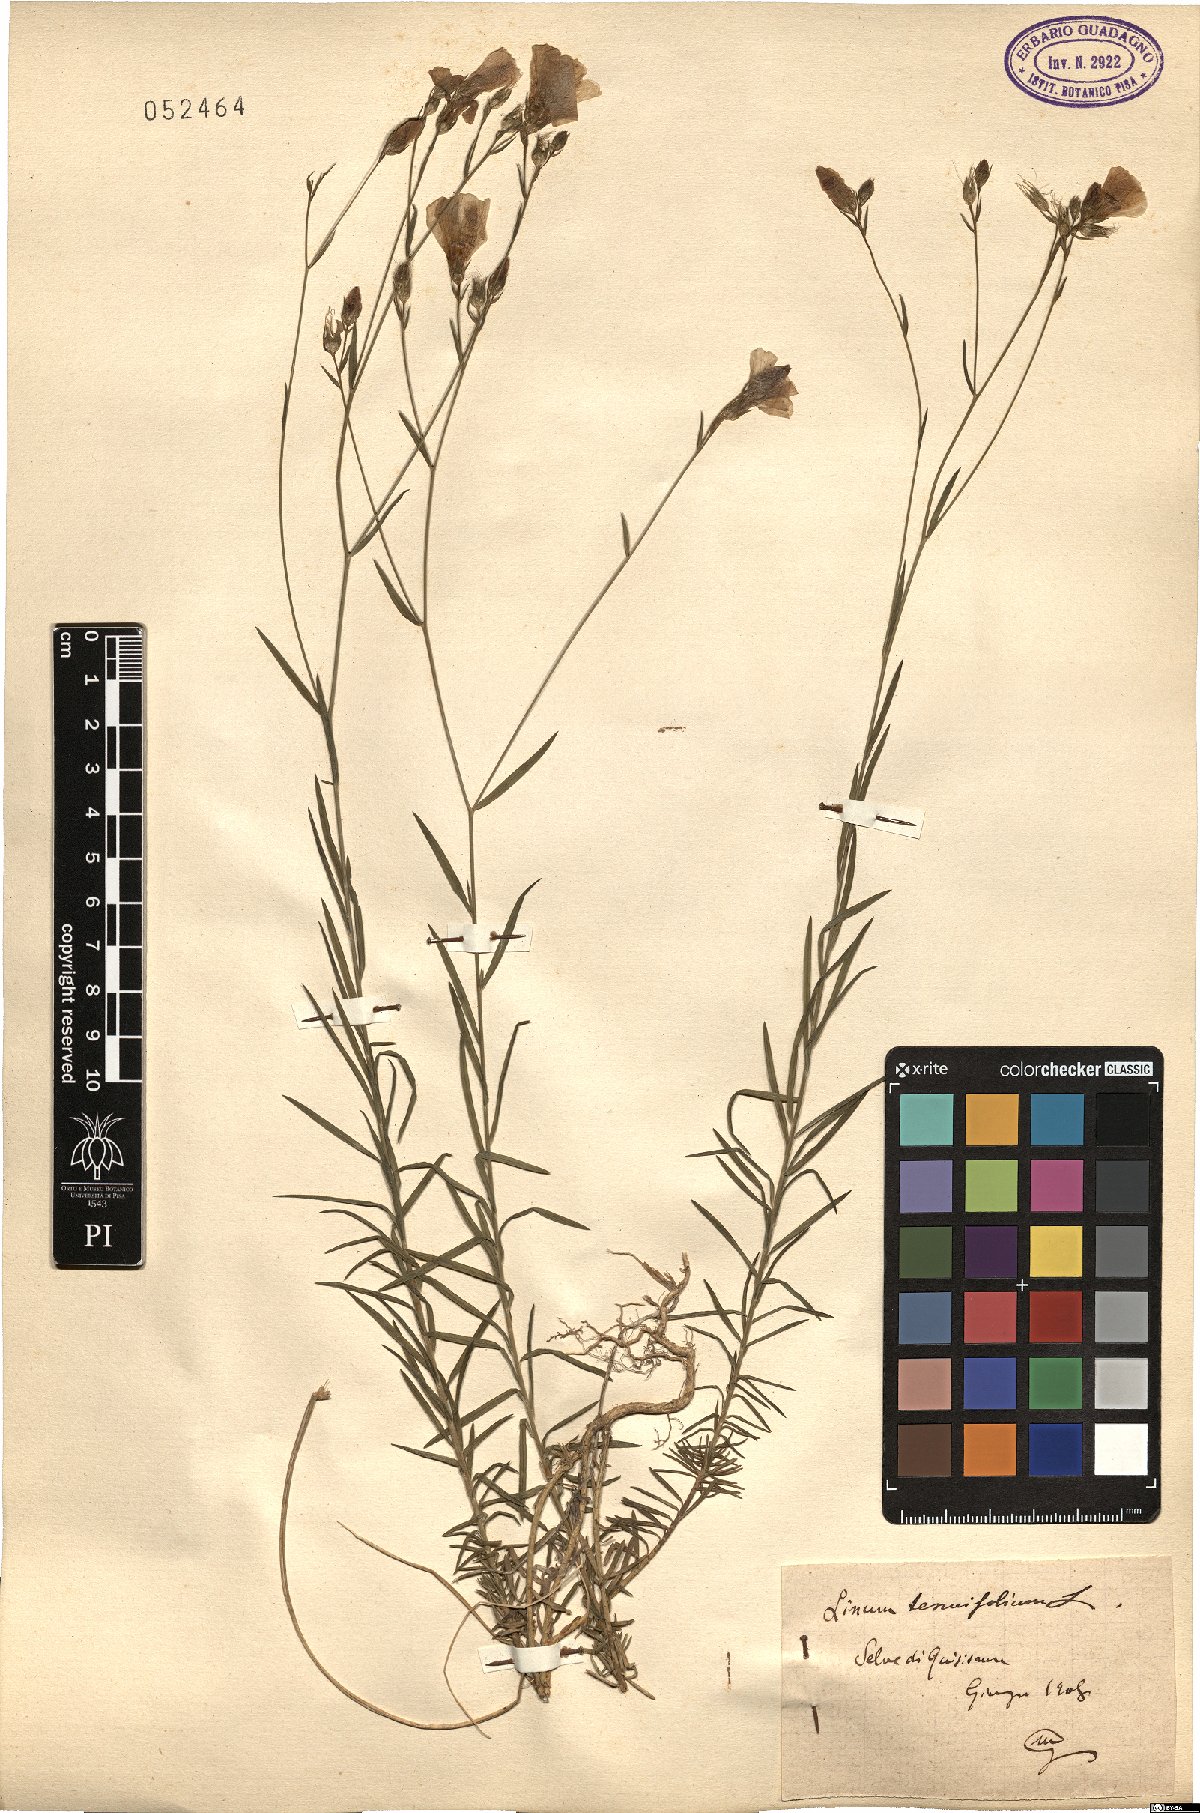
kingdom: Plantae
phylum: Tracheophyta
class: Magnoliopsida
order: Malpighiales
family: Linaceae
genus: Linum
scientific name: Linum tenuifolium
